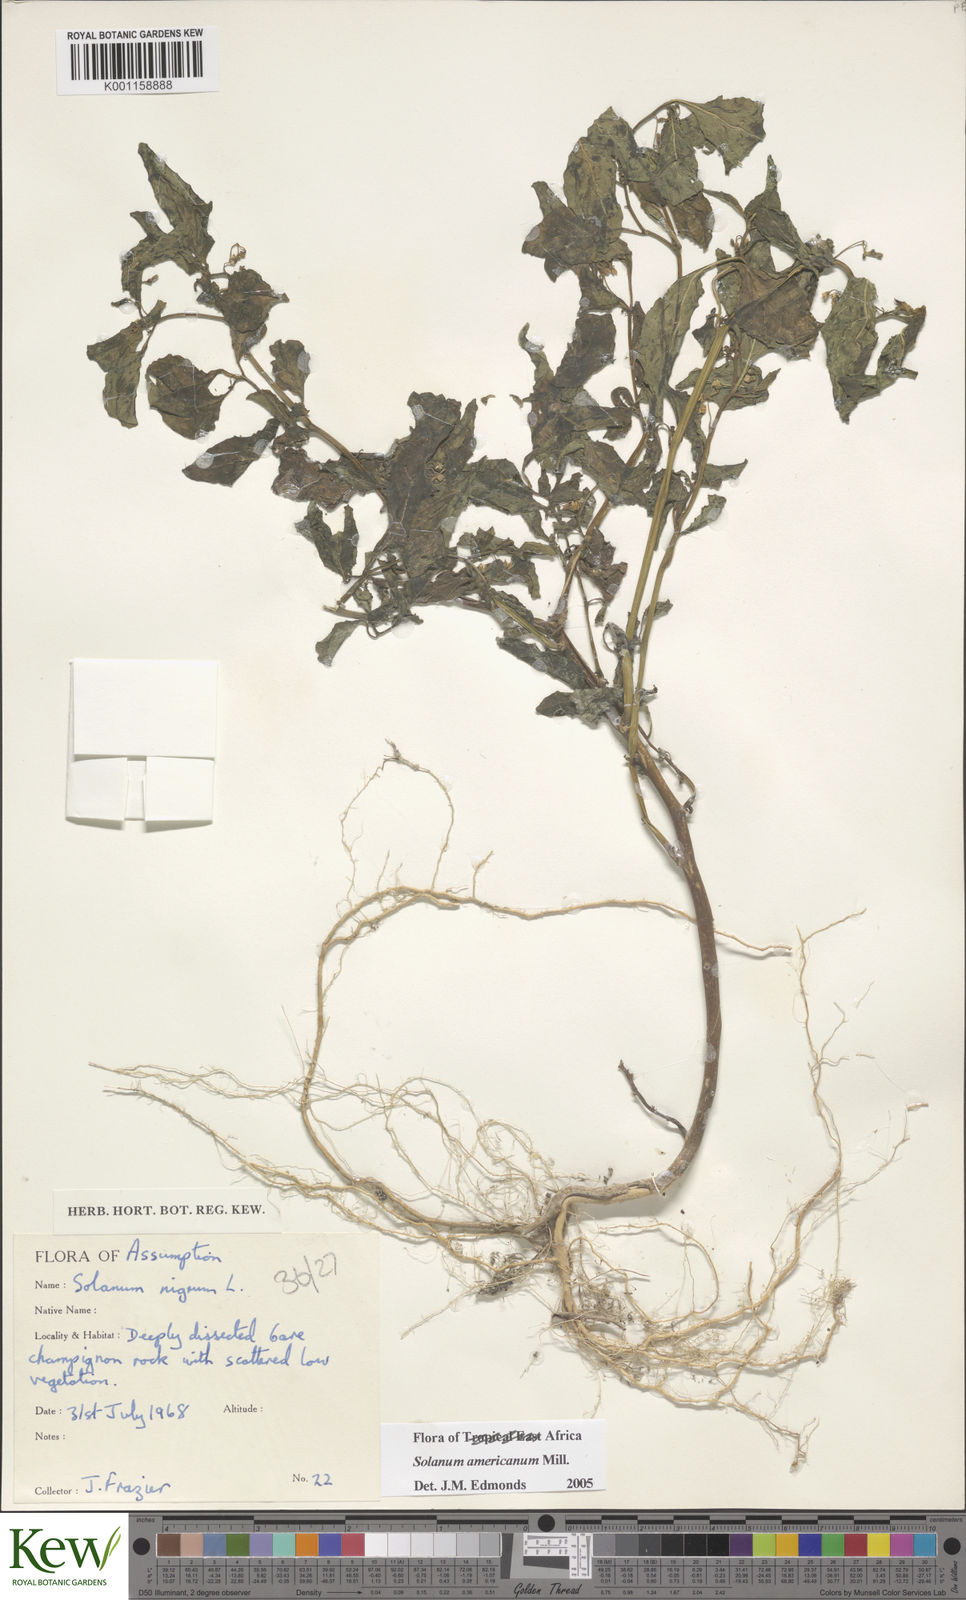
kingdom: Plantae
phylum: Tracheophyta
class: Magnoliopsida
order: Solanales
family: Solanaceae
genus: Solanum
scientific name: Solanum americanum
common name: American black nightshade
